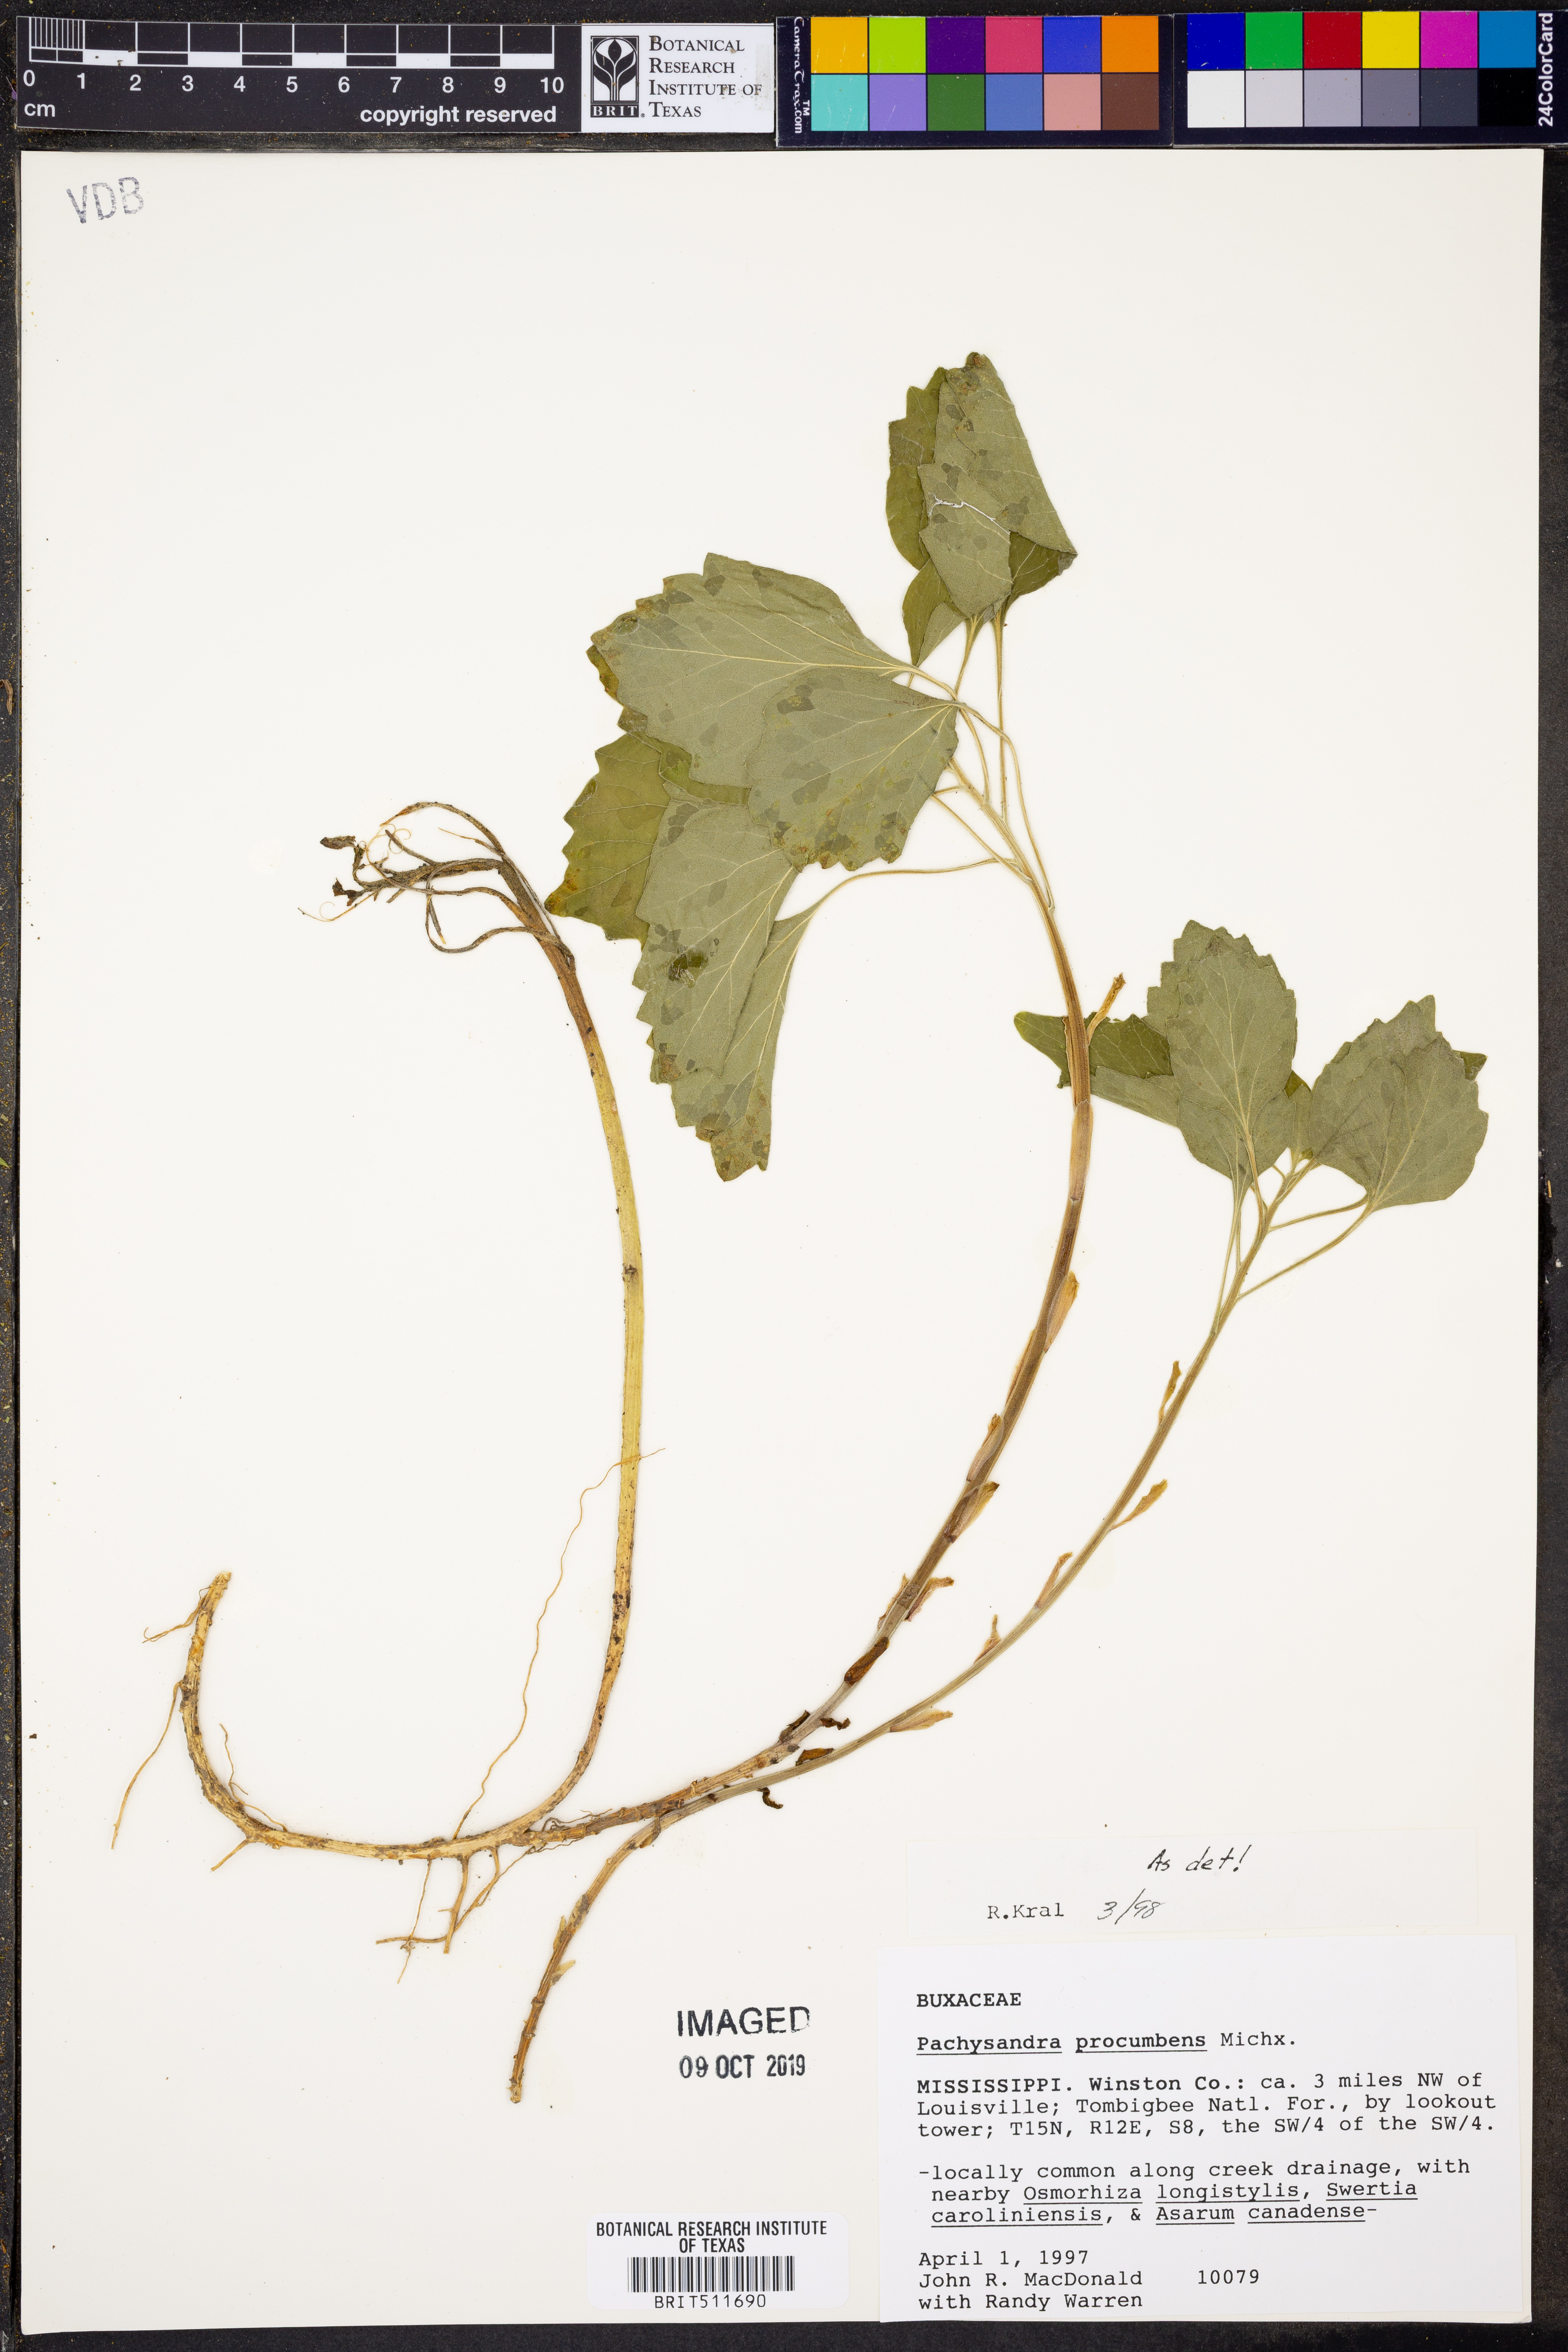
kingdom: Plantae
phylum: Tracheophyta
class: Magnoliopsida
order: Buxales
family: Buxaceae
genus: Pachysandra
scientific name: Pachysandra procumbens
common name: Mountain-spurge
